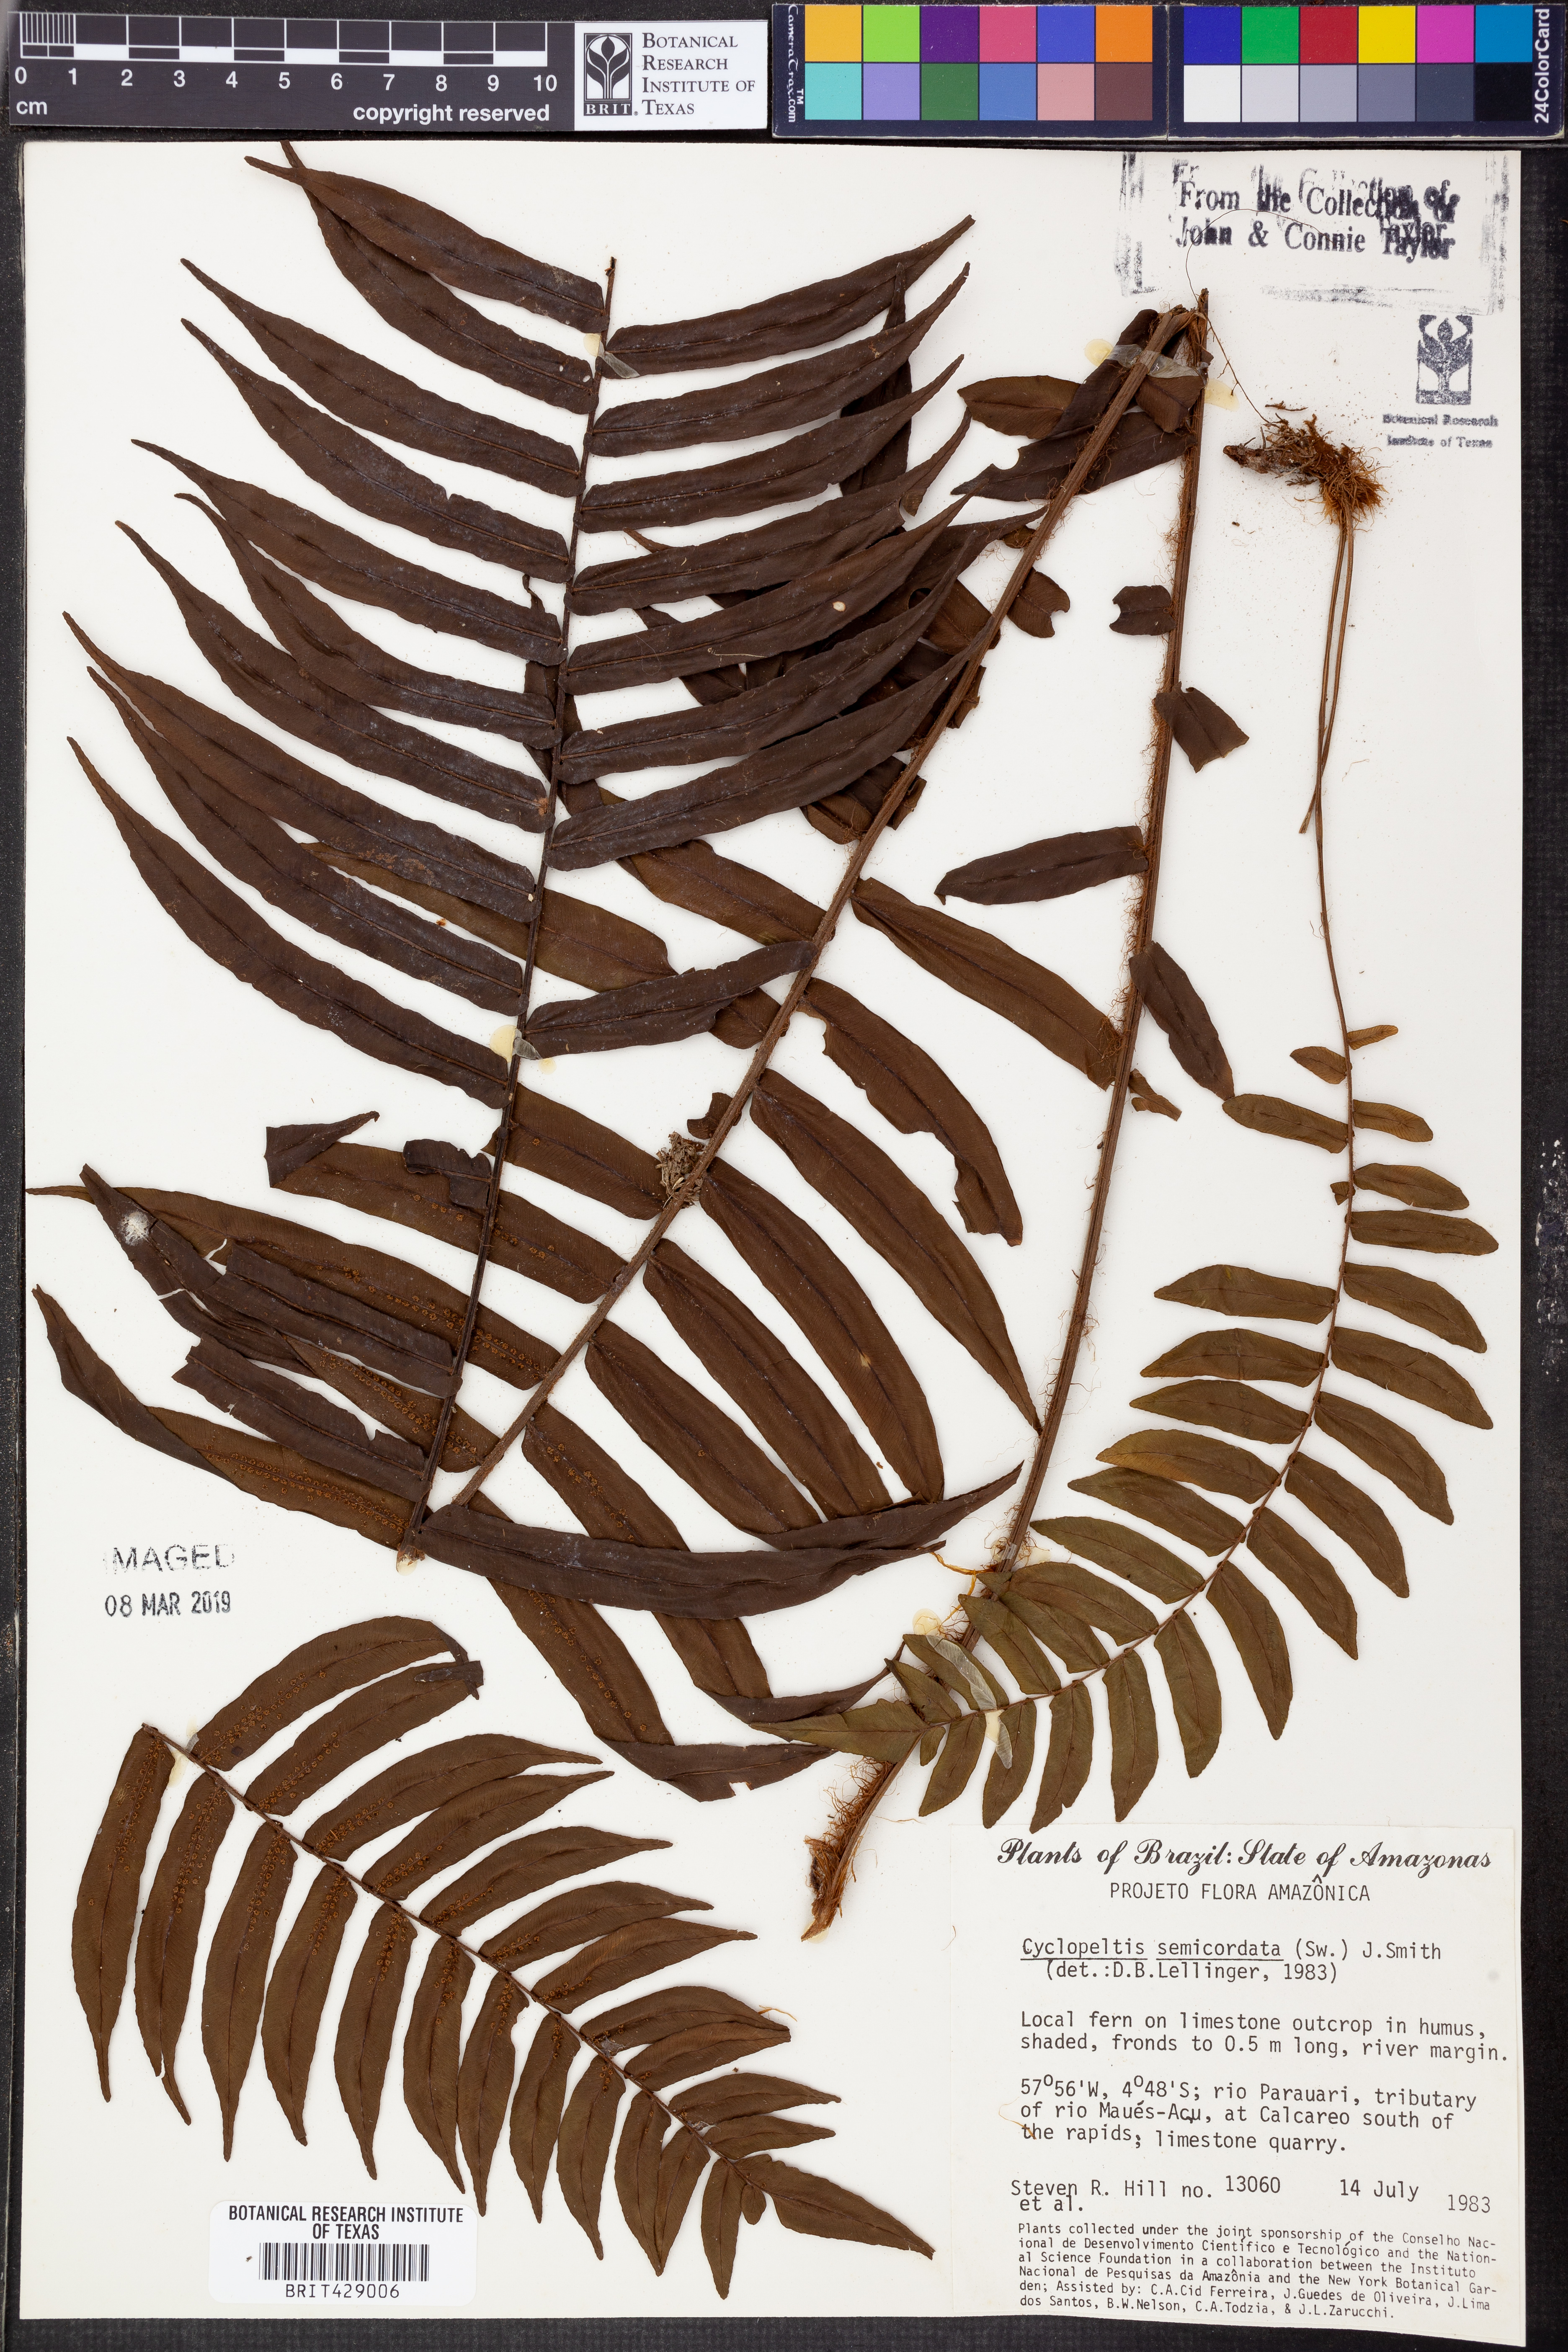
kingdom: Plantae
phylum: Tracheophyta
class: Polypodiopsida
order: Polypodiales
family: Lomariopsidaceae
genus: Cyclopeltis
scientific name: Cyclopeltis semicordata
